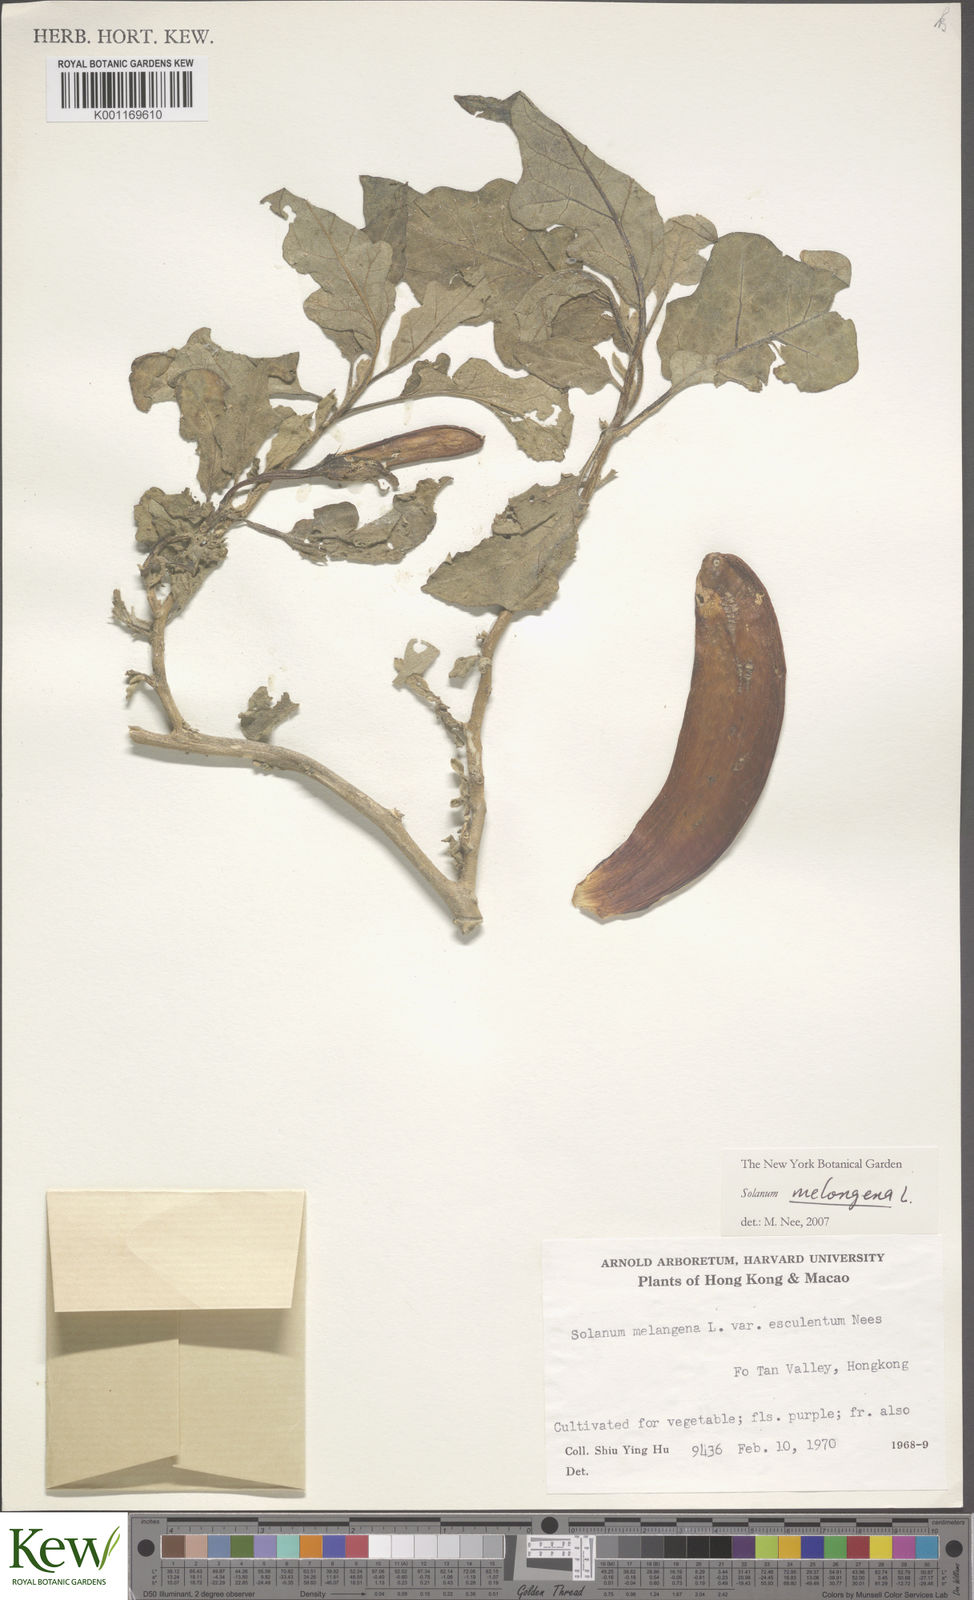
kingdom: Plantae
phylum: Tracheophyta
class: Magnoliopsida
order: Solanales
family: Solanaceae
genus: Solanum
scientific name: Solanum melongena
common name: Eggplant
